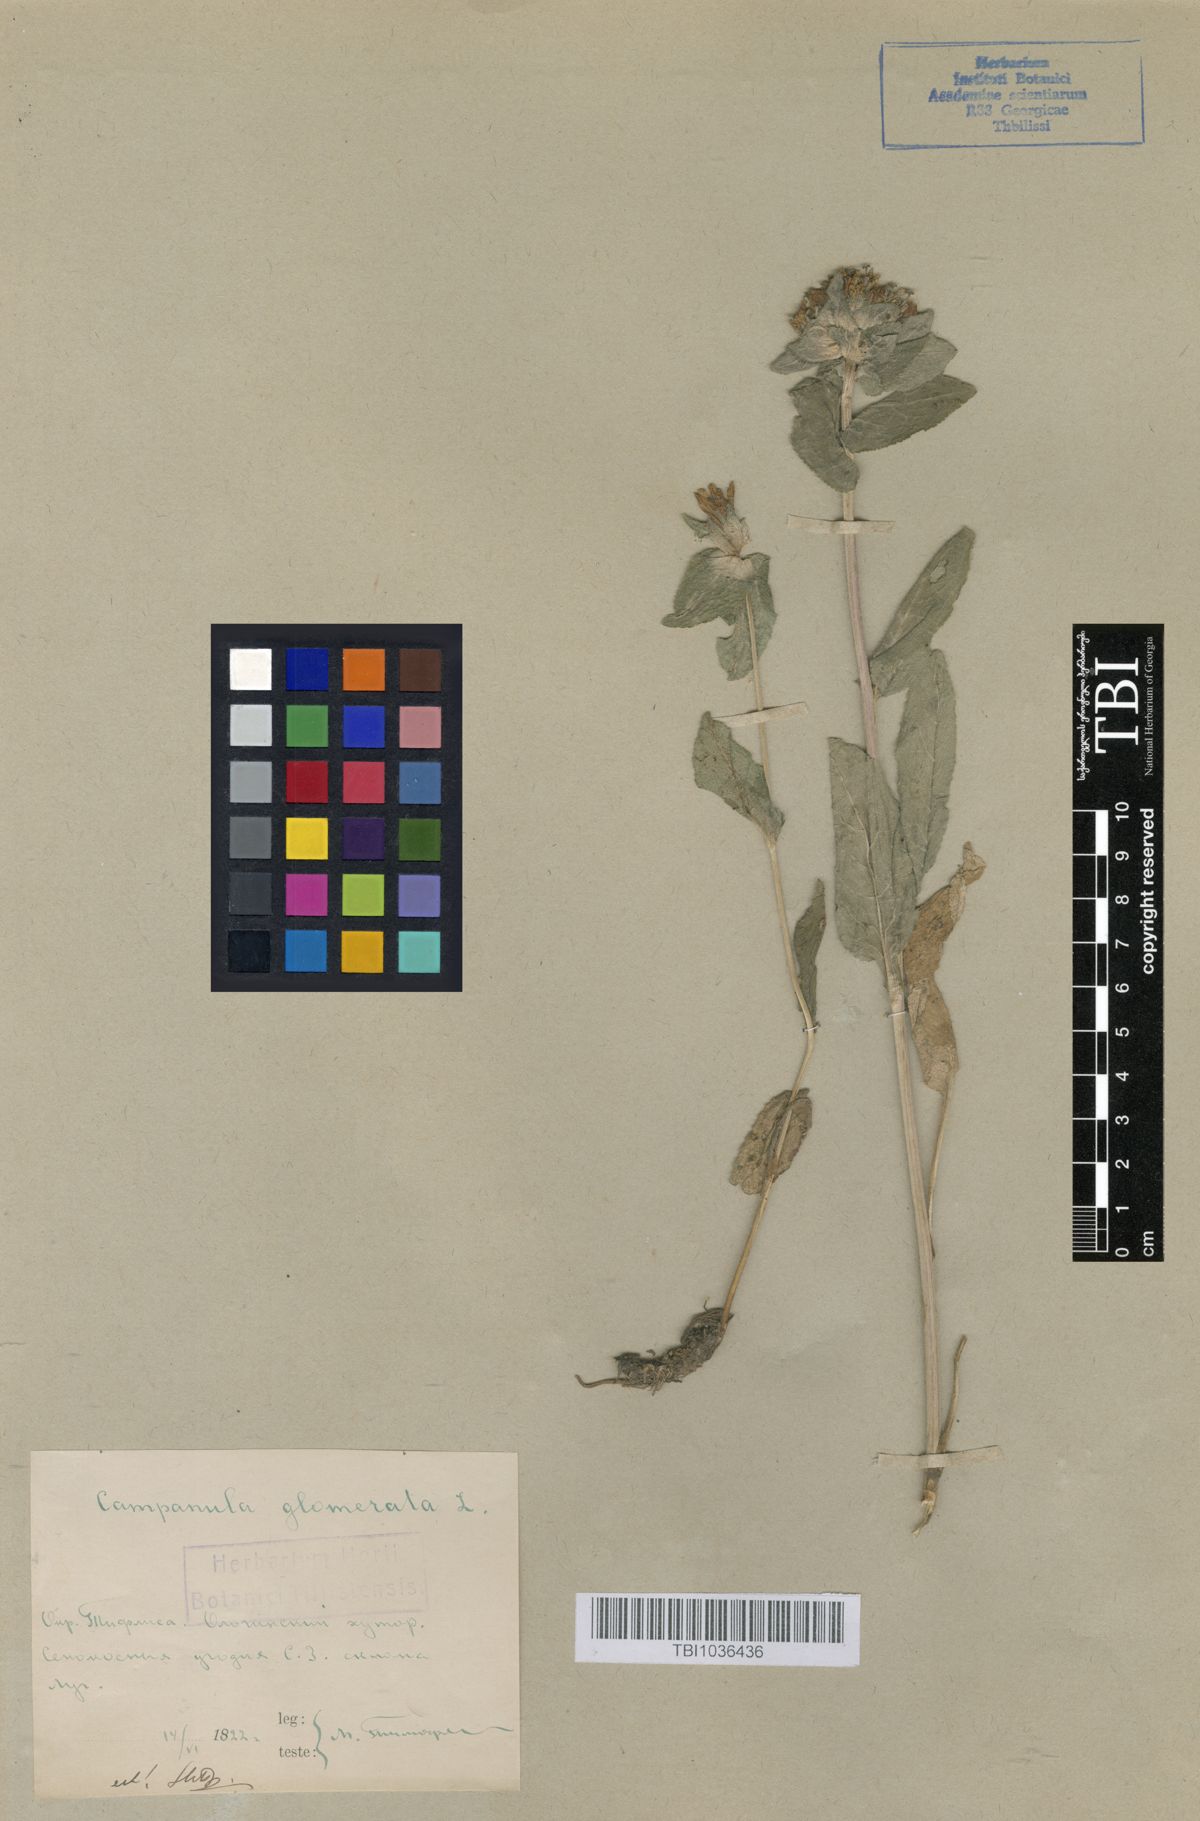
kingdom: Plantae
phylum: Tracheophyta
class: Magnoliopsida
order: Asterales
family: Campanulaceae
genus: Campanula
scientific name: Campanula glomerata
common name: Clustered bellflower
